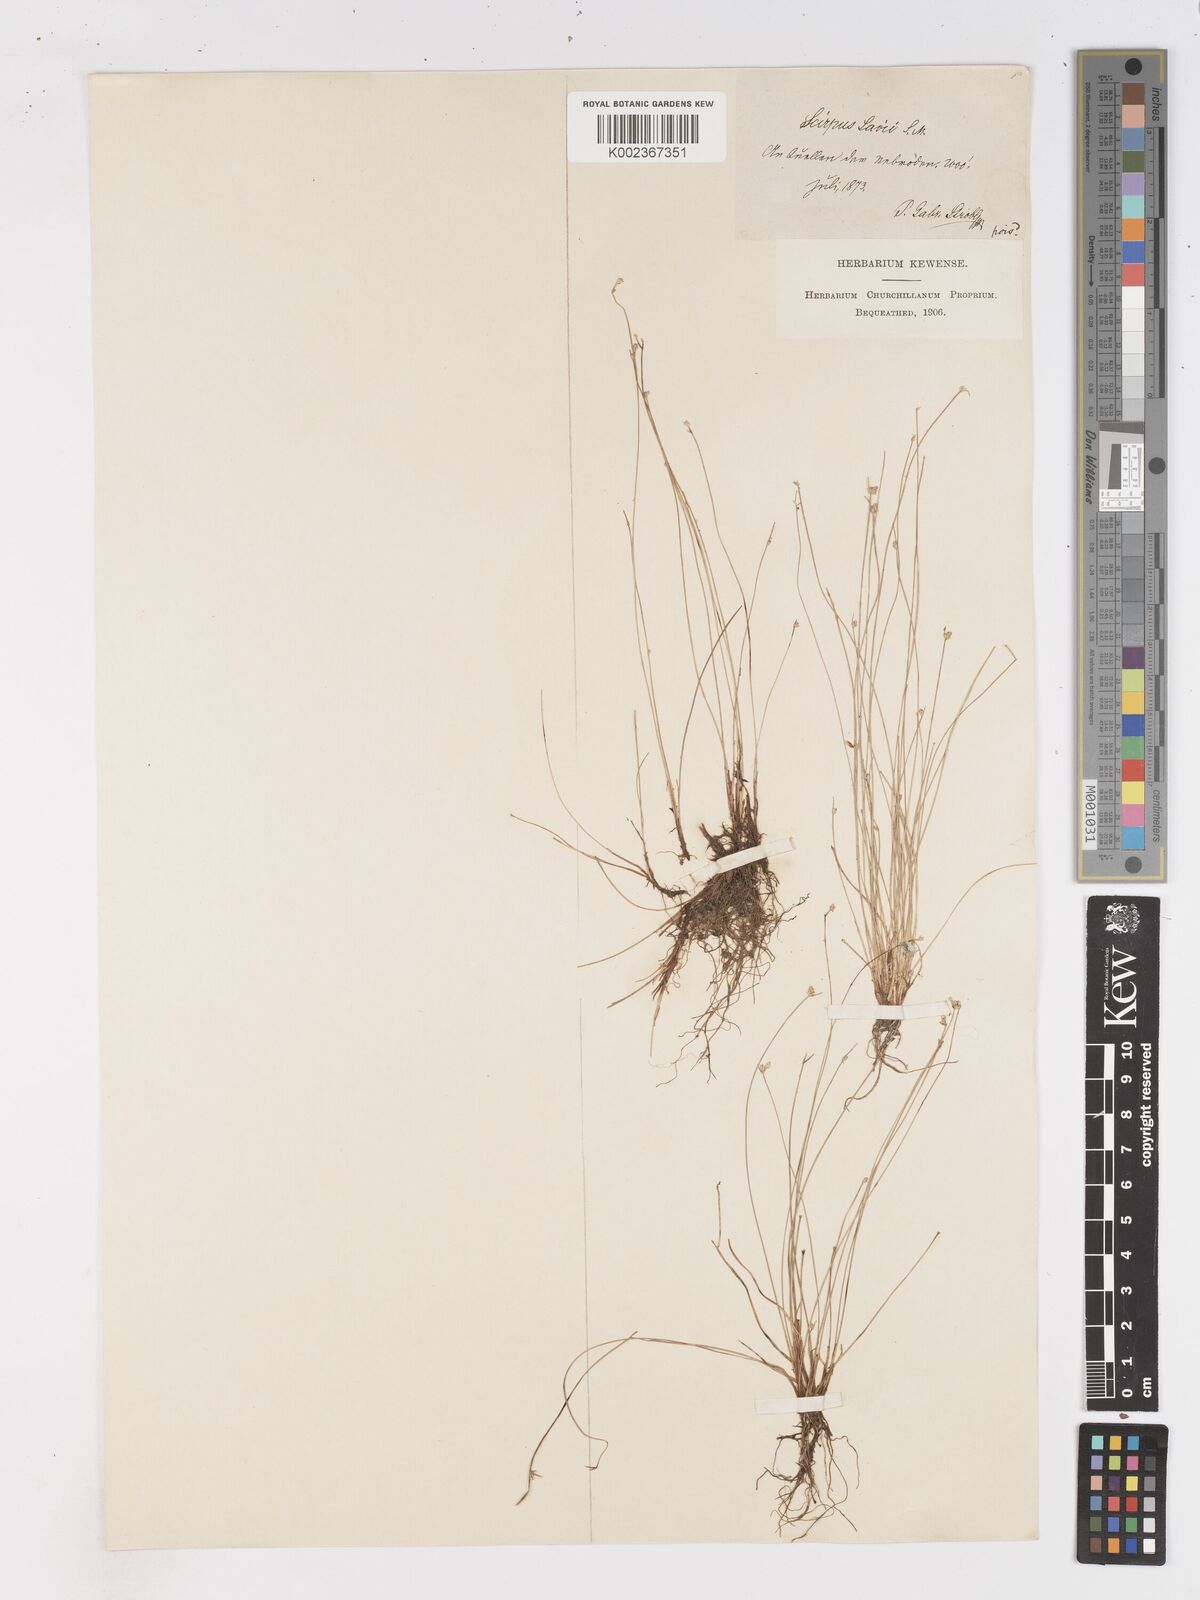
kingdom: Plantae
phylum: Tracheophyta
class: Liliopsida
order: Poales
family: Cyperaceae
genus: Isolepis
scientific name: Isolepis cernua
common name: Slender club-rush
